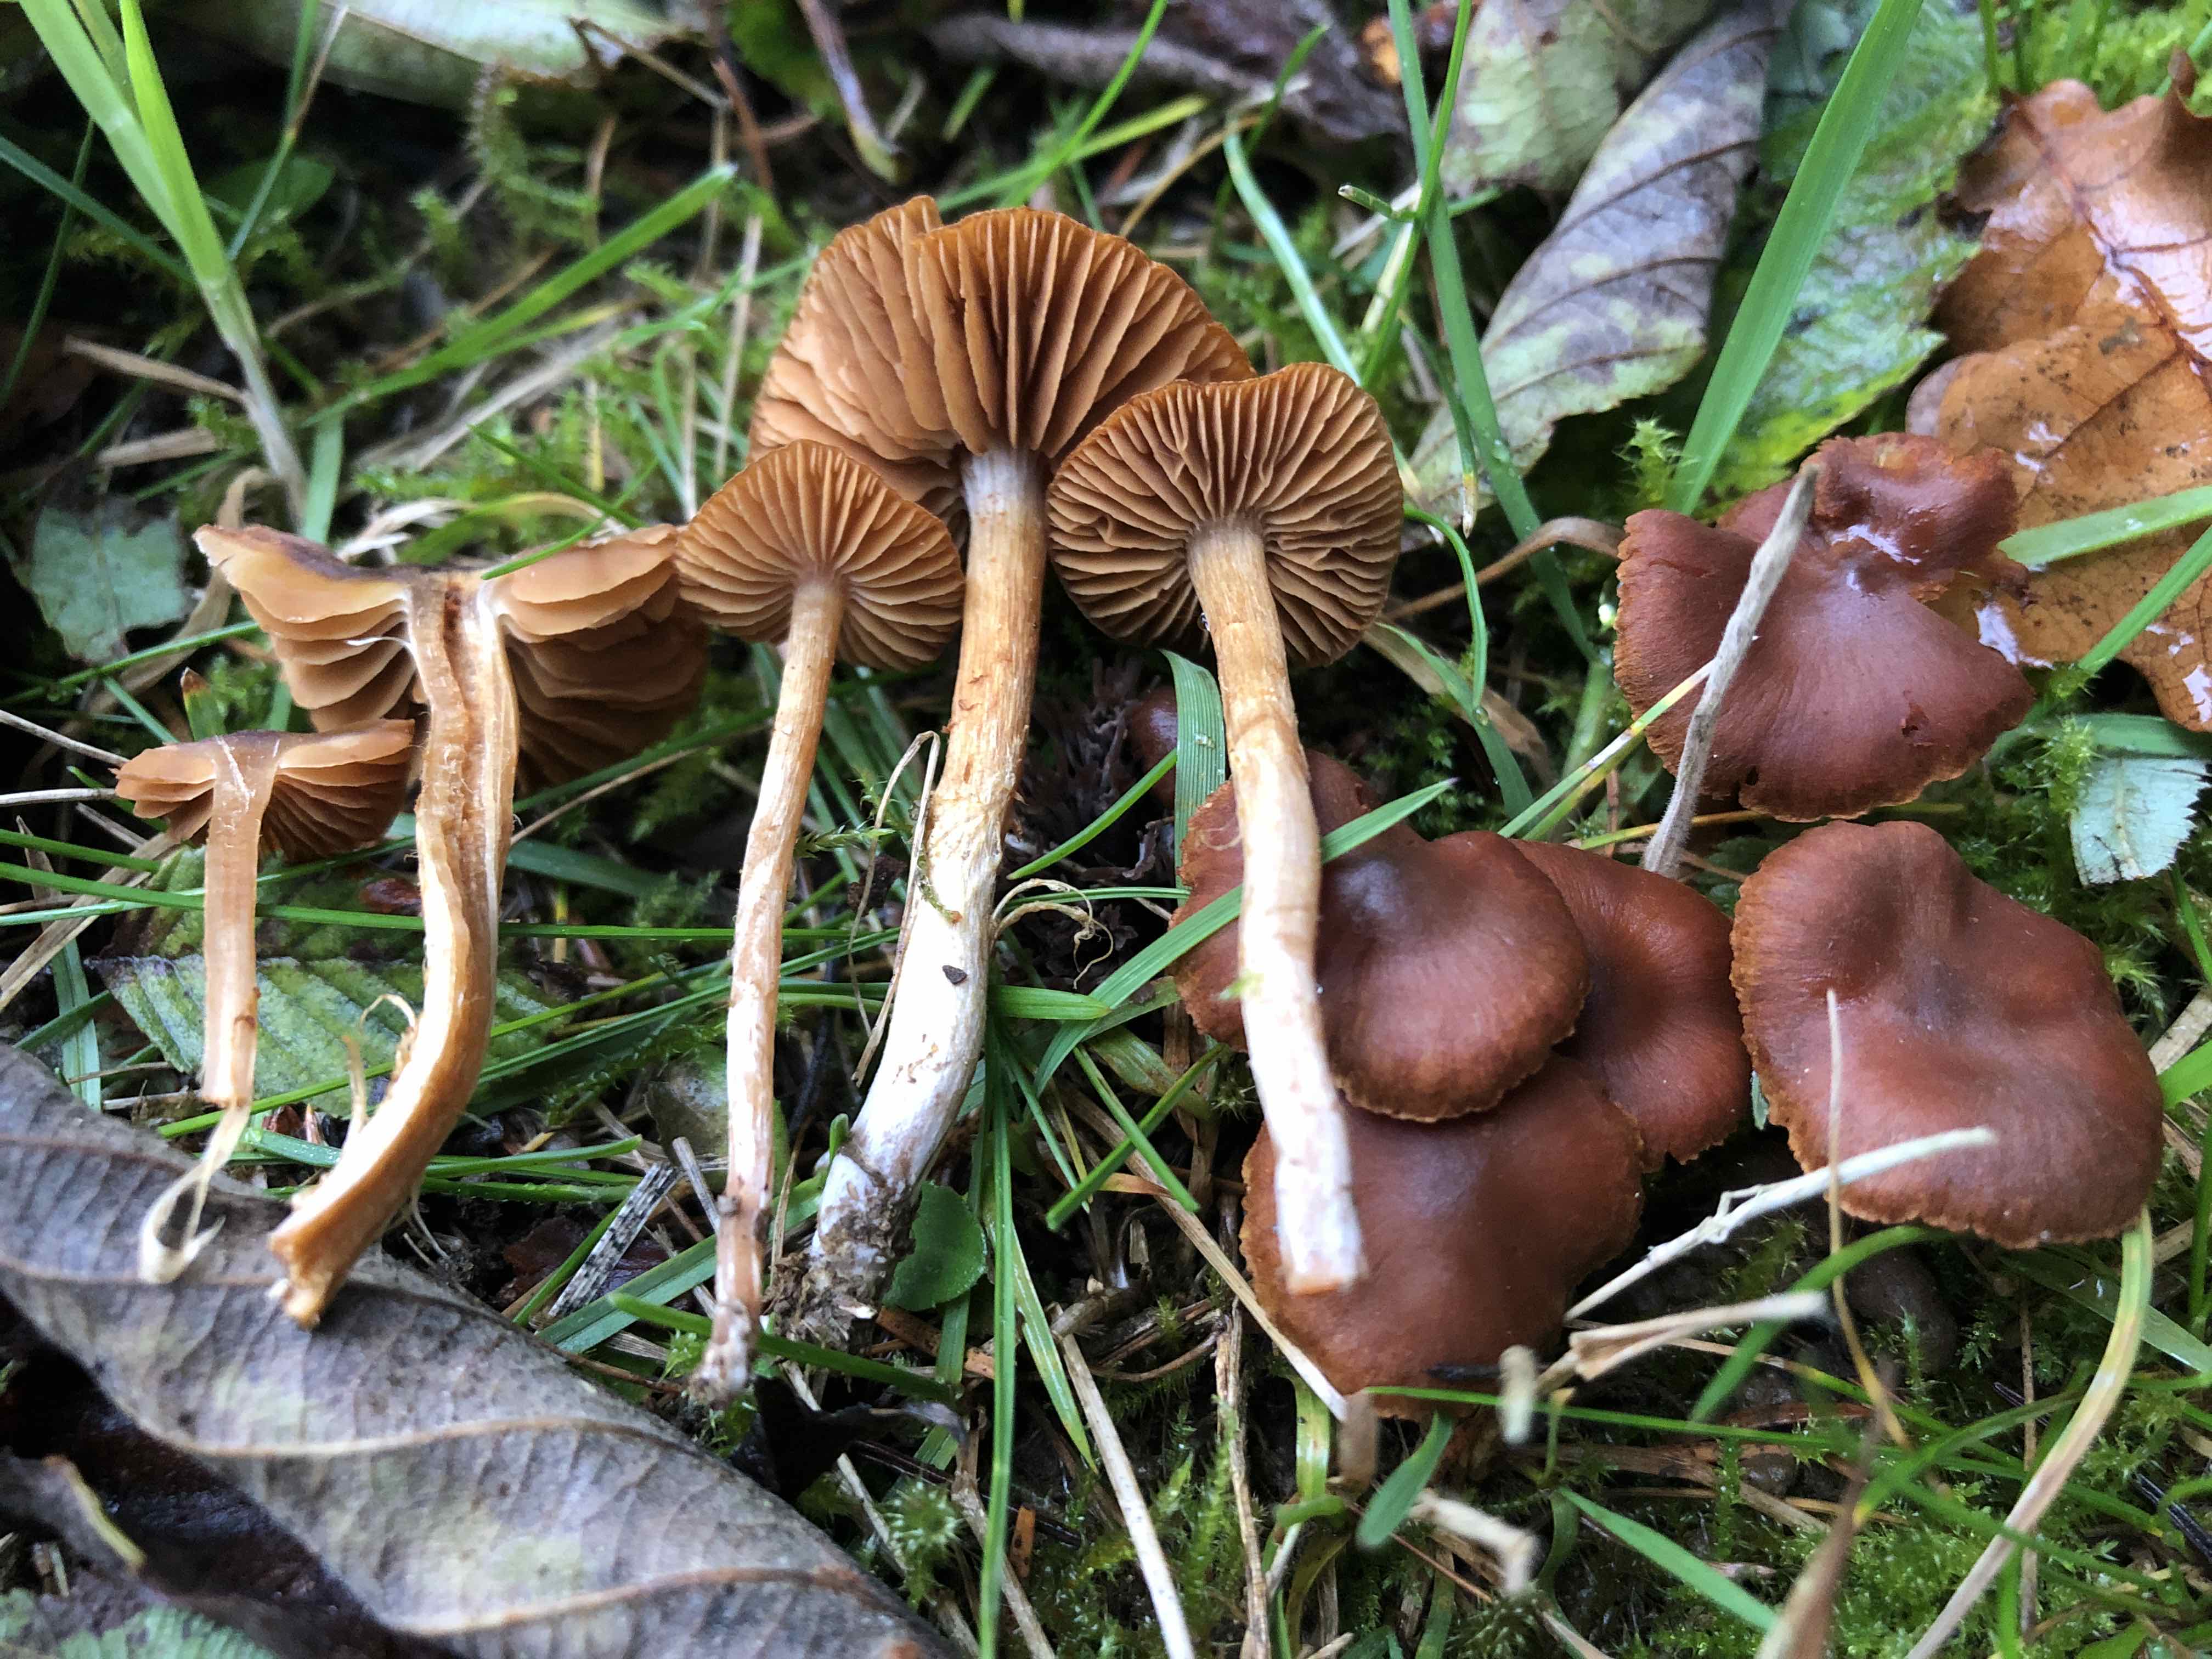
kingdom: Fungi
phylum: Basidiomycota
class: Agaricomycetes
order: Agaricales
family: Cortinariaceae
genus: Cortinarius
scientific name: Cortinarius saniosus
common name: gultrævlet slørhat
